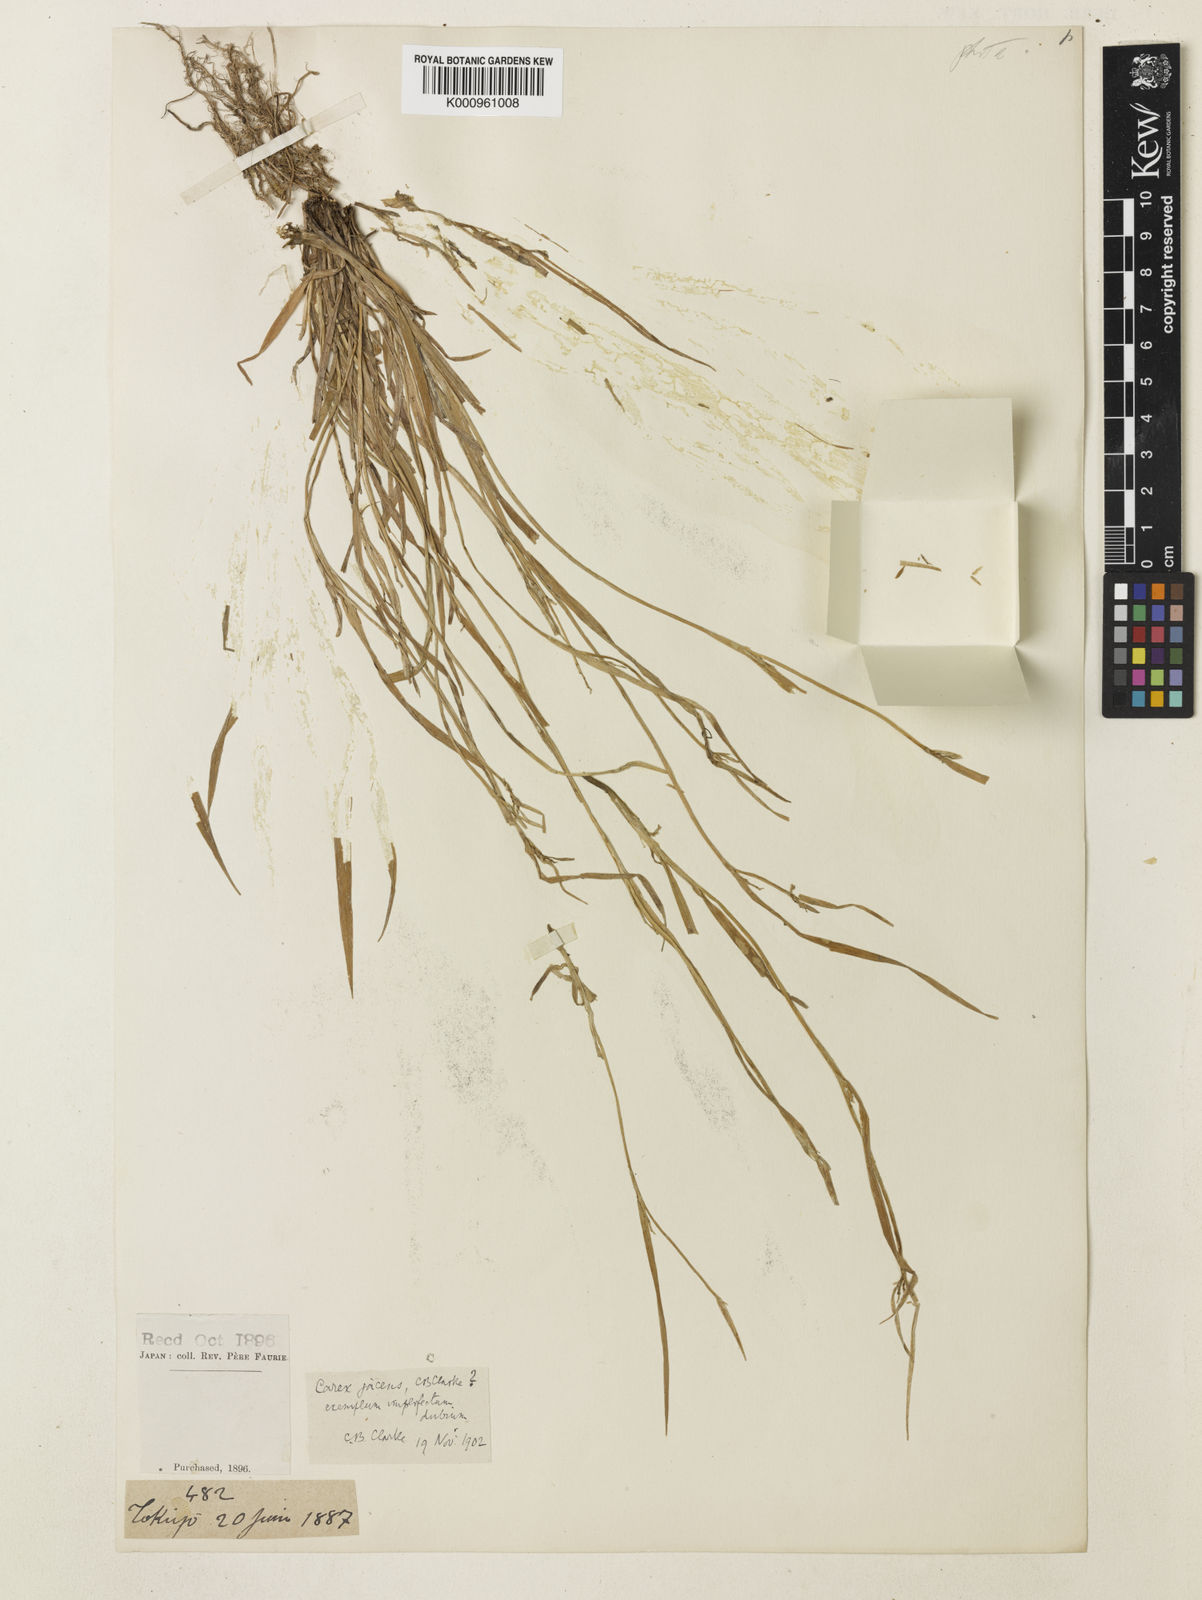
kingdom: Plantae
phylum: Tracheophyta
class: Liliopsida
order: Poales
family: Cyperaceae
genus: Carex
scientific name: Carex jacens
